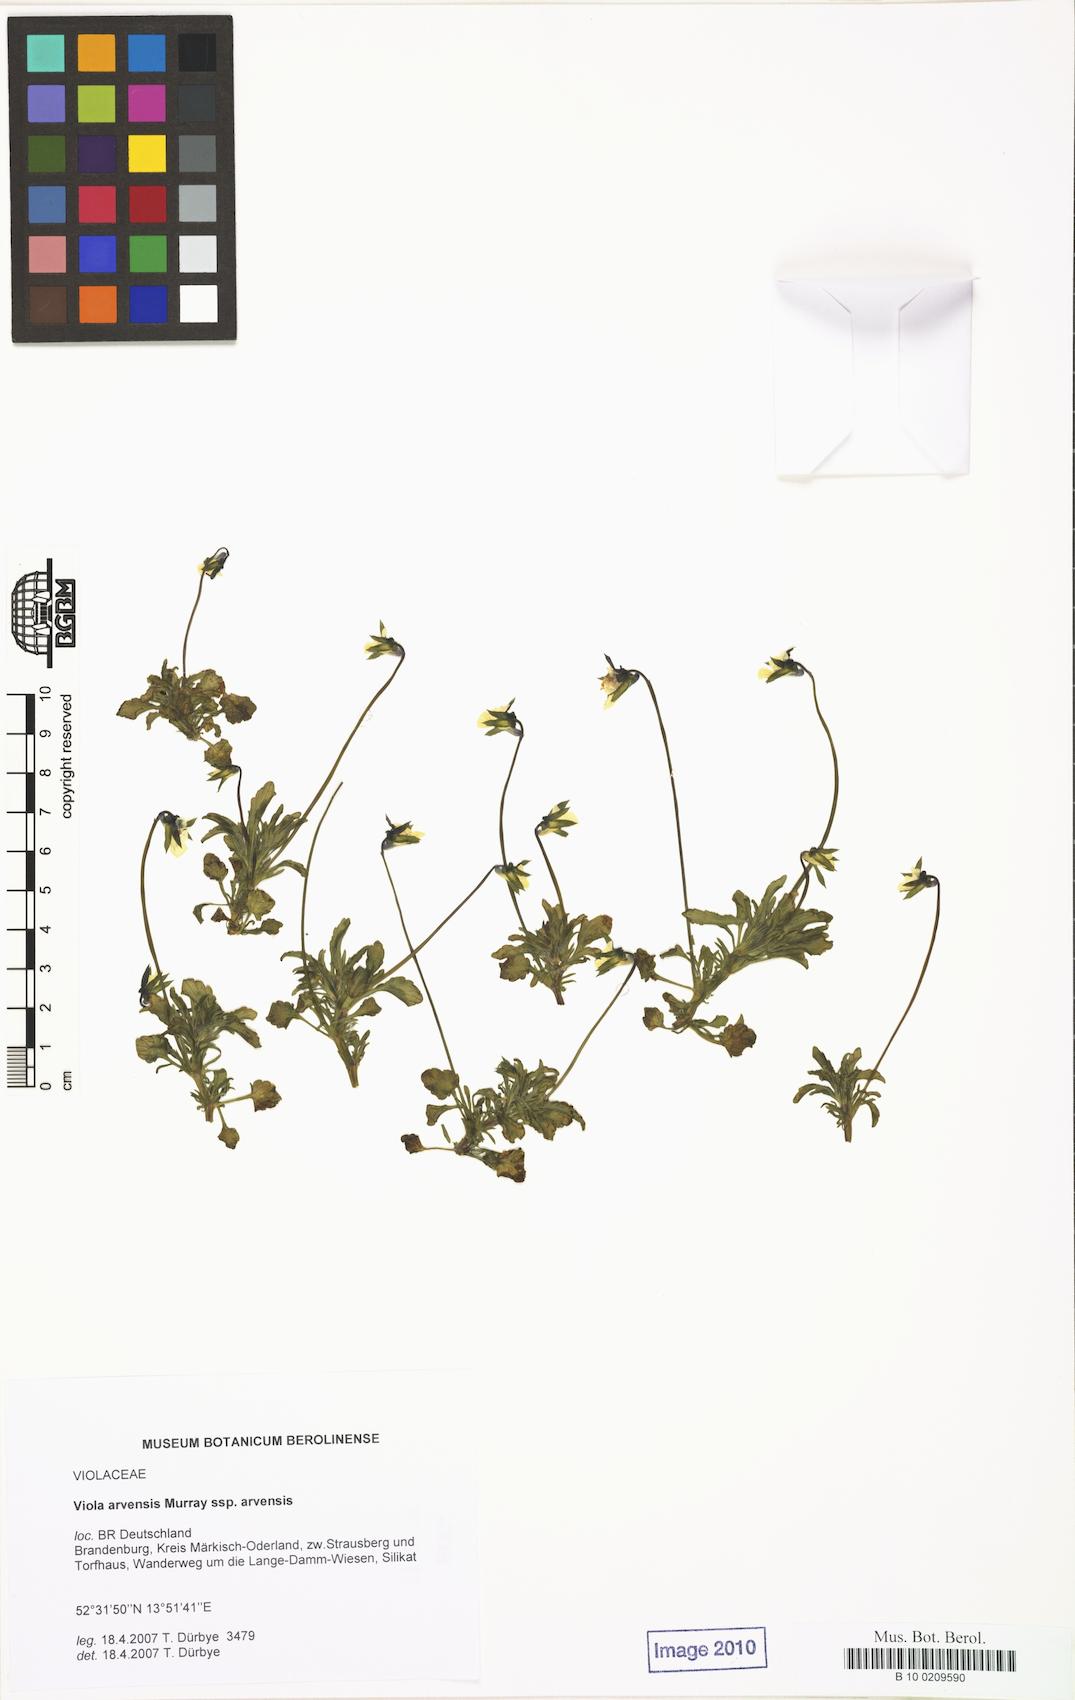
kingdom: Plantae
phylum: Tracheophyta
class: Magnoliopsida
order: Malpighiales
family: Violaceae
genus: Viola
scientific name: Viola arvensis
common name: Field pansy
